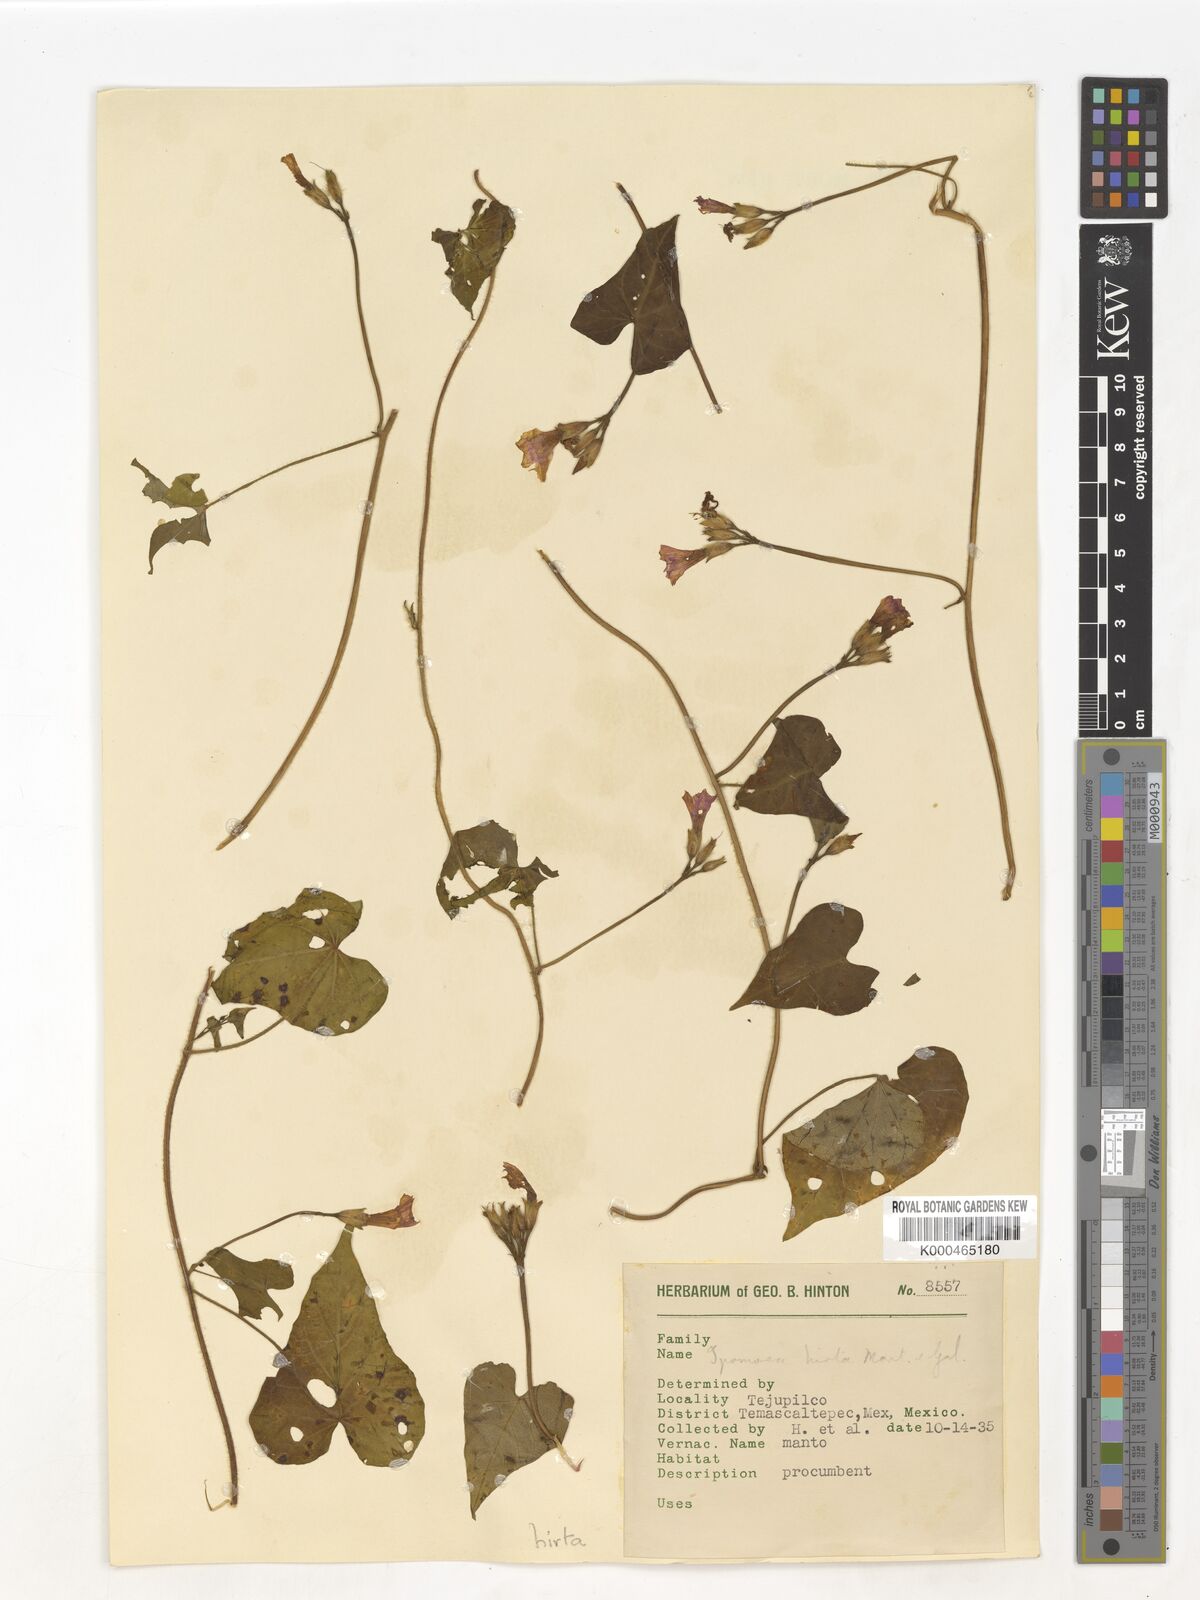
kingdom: Plantae
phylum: Tracheophyta
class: Magnoliopsida
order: Solanales
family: Convolvulaceae
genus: Ipomoea
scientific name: Ipomoea triloba
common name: Little-bell
